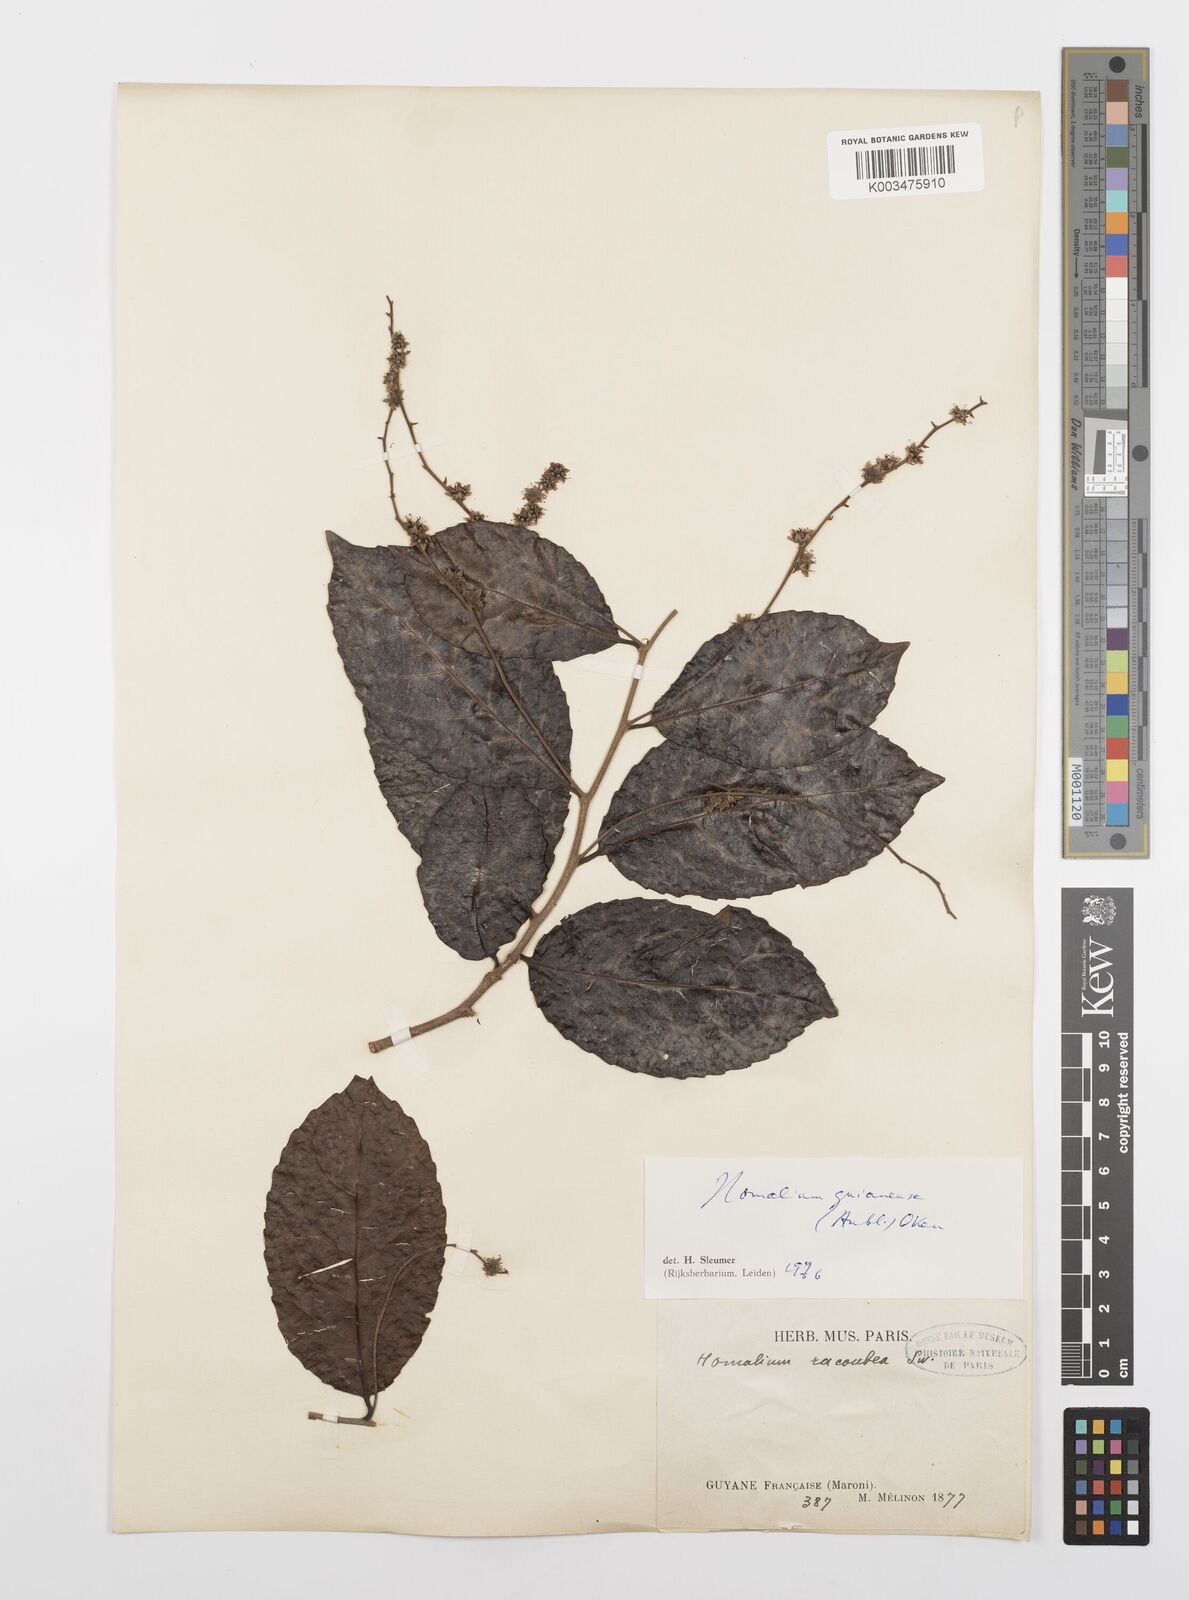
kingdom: Plantae
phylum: Tracheophyta
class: Magnoliopsida
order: Malpighiales
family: Salicaceae
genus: Homalium
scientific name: Homalium guianense
